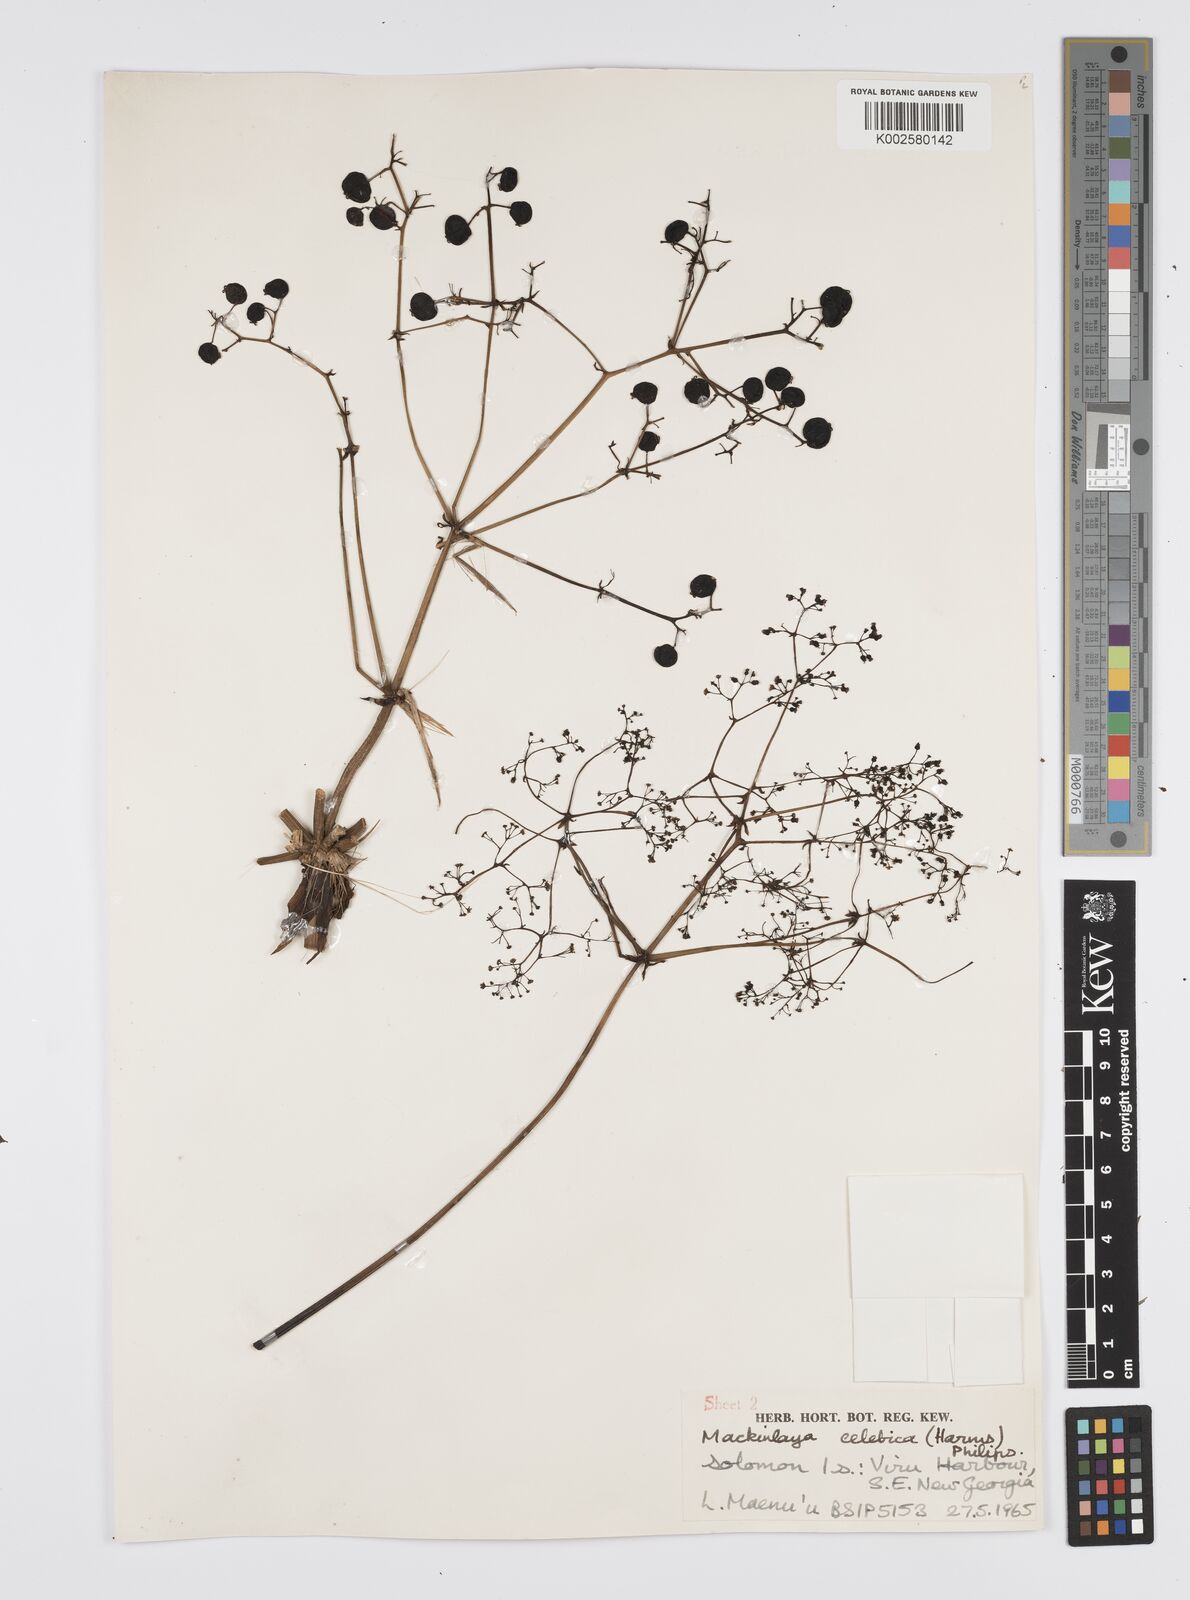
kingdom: Plantae
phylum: Tracheophyta
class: Magnoliopsida
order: Apiales
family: Apiaceae
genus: Mackinlaya
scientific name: Mackinlaya celebica
